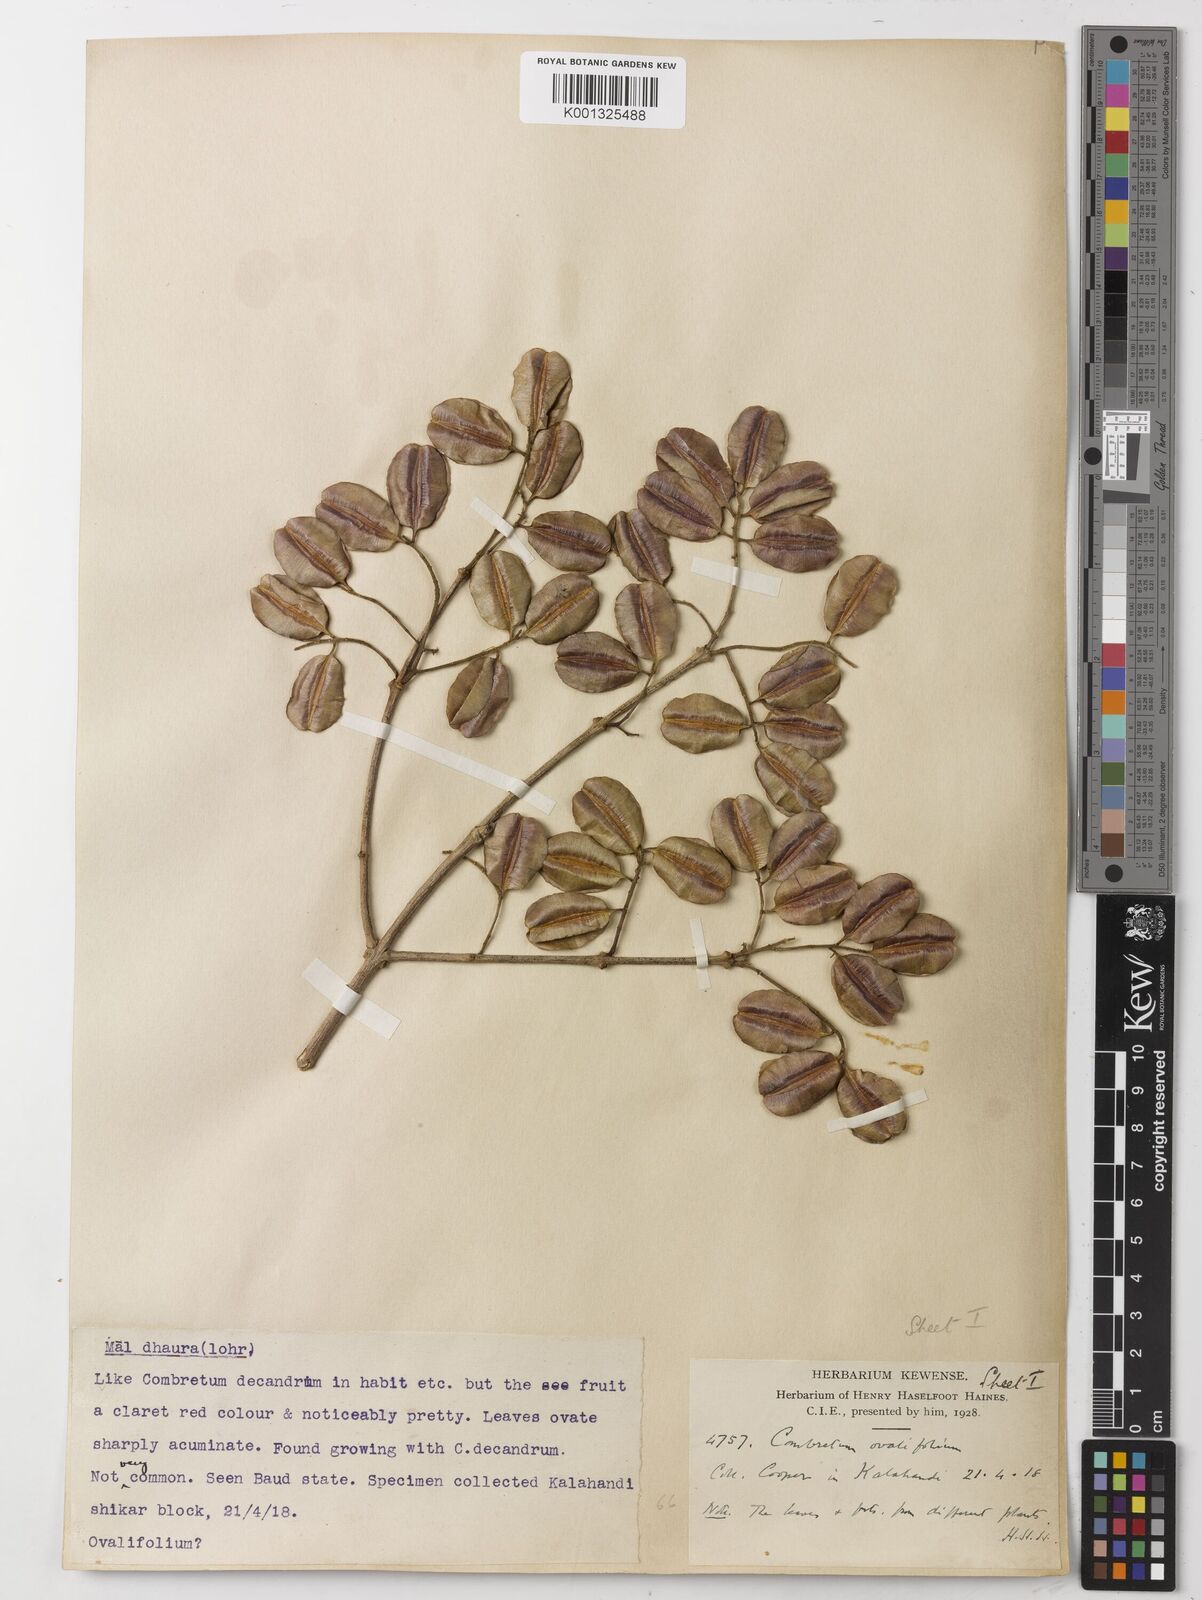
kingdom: Plantae
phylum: Tracheophyta
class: Magnoliopsida
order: Myrtales
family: Combretaceae
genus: Combretum
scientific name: Combretum albidum
